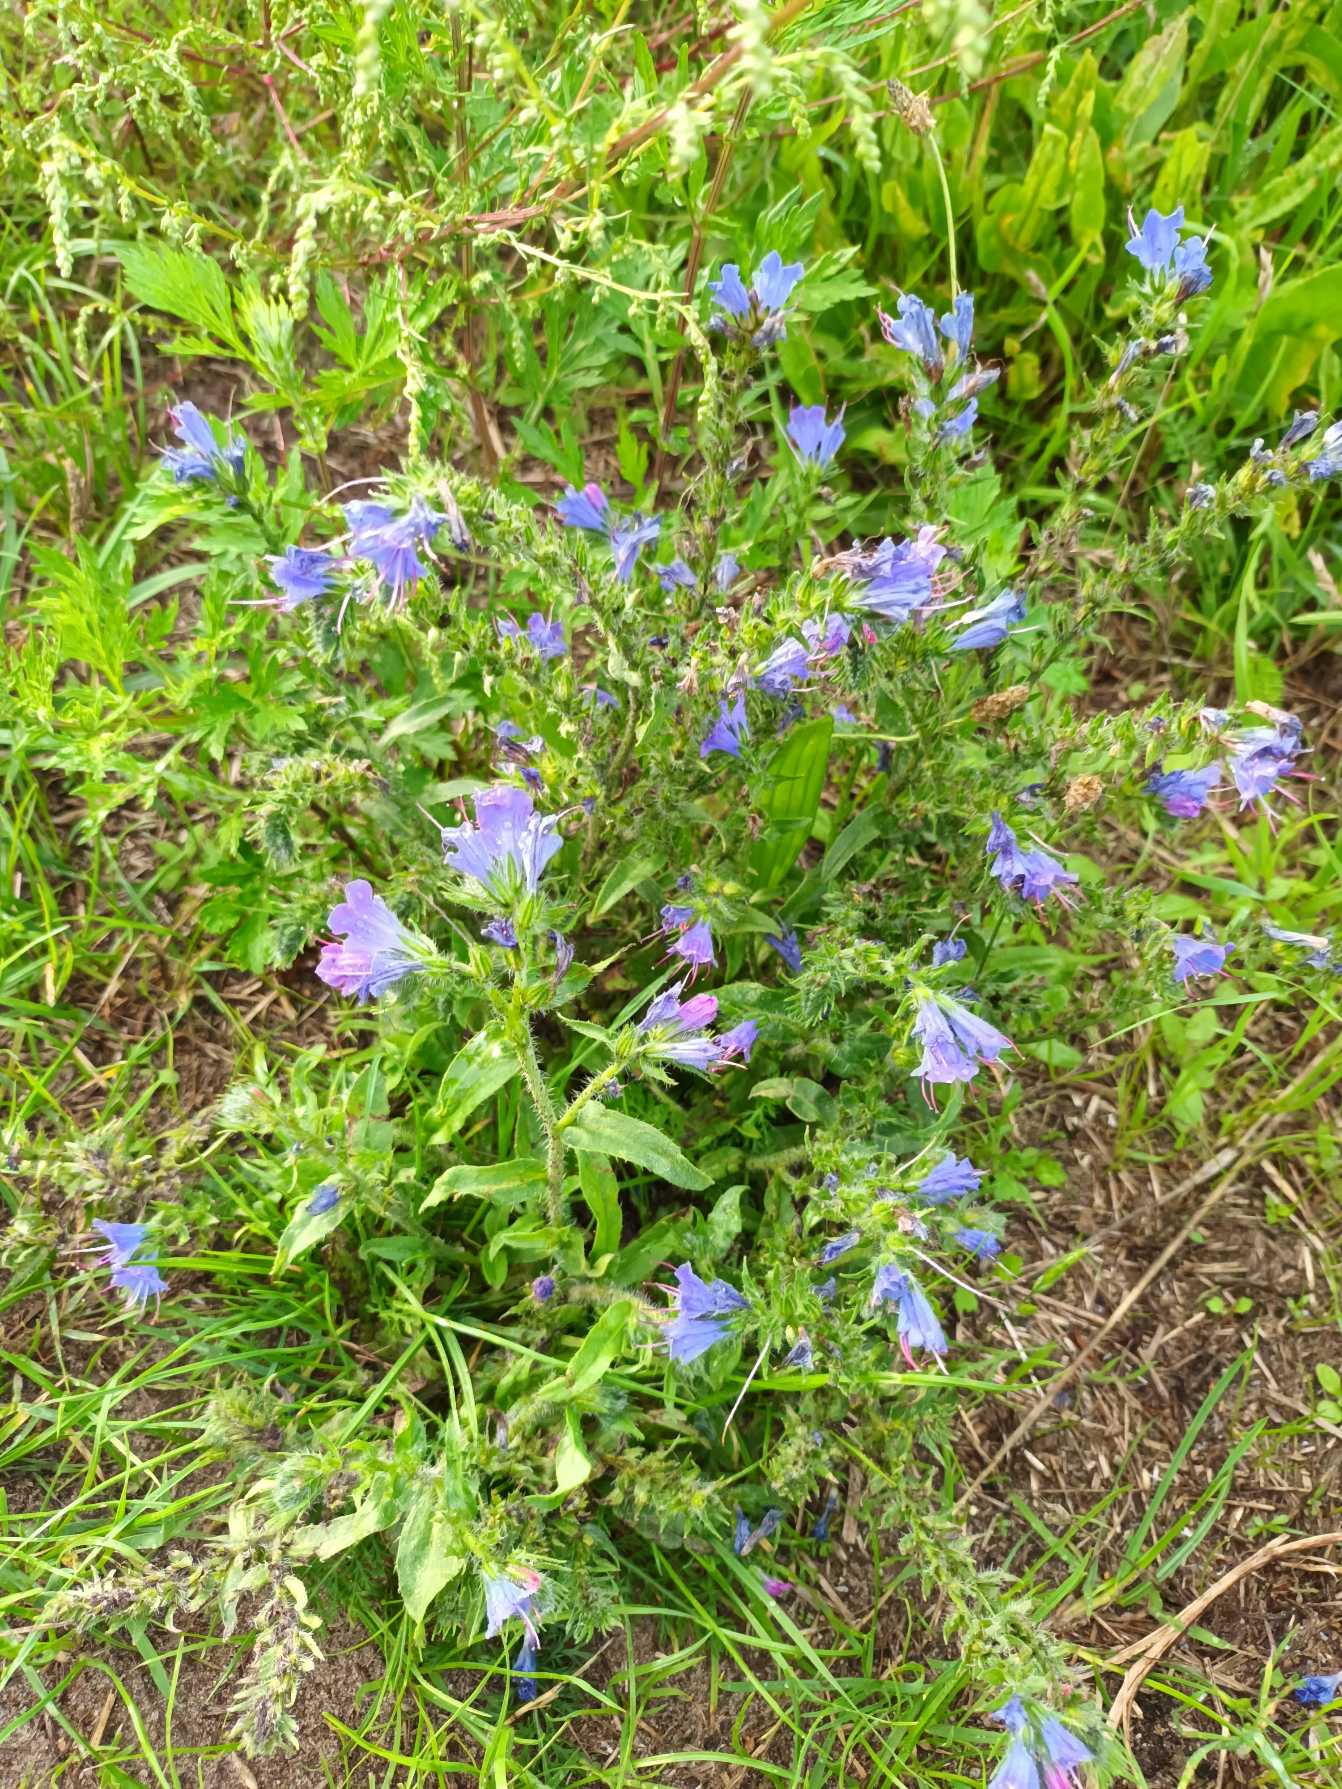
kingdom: Plantae
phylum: Tracheophyta
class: Magnoliopsida
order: Boraginales
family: Boraginaceae
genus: Echium
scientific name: Echium vulgare
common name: Slangehoved
